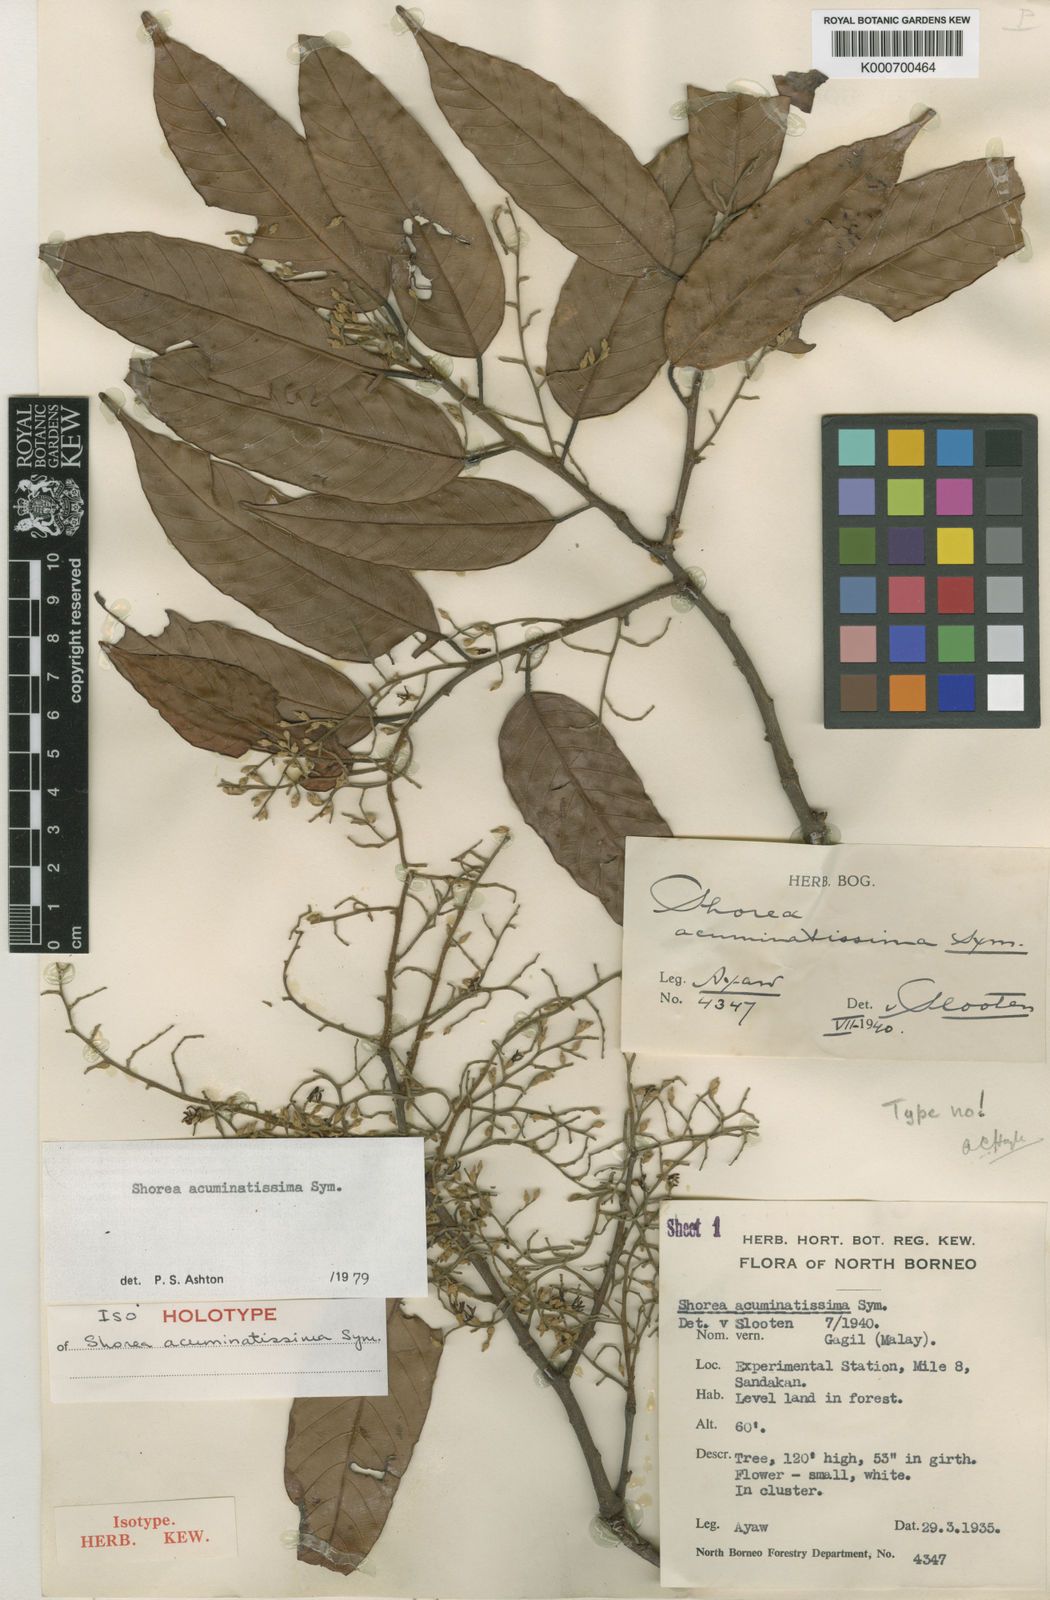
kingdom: Plantae
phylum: Tracheophyta
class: Magnoliopsida
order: Malvales
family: Dipterocarpaceae
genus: Shorea
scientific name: Shorea acuminatissima
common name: Yellow meranti
